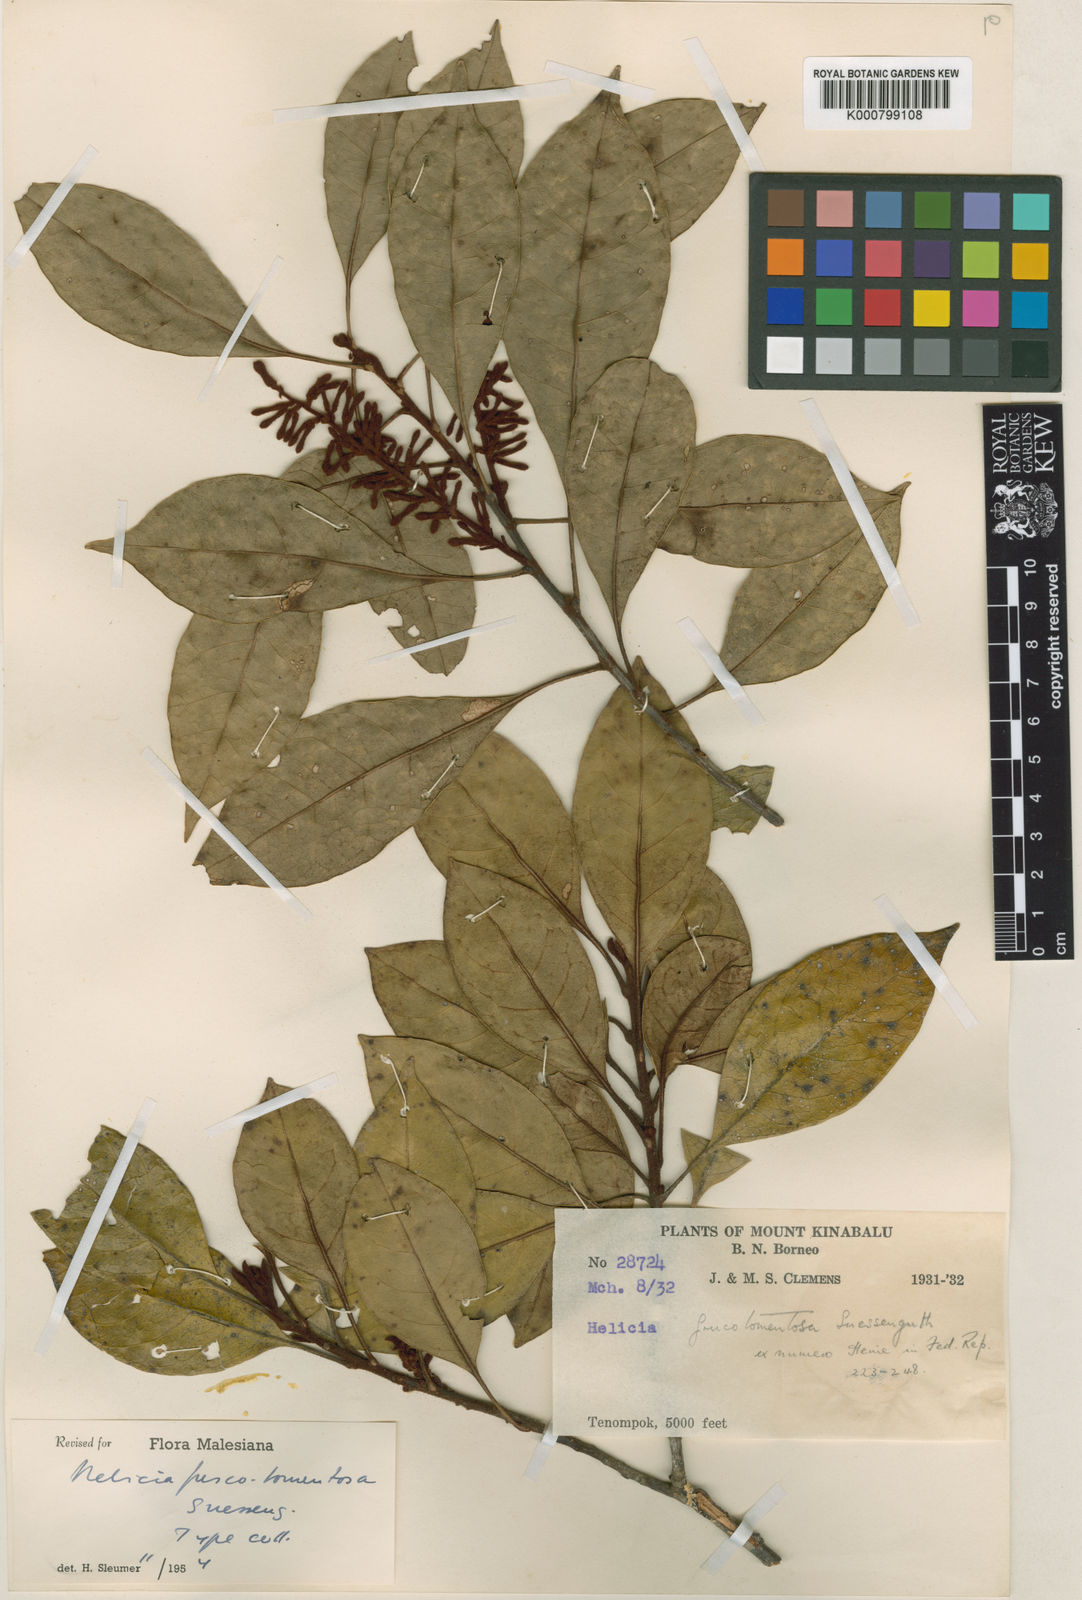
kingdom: Plantae
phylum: Tracheophyta
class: Magnoliopsida
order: Proteales
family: Proteaceae
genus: Helicia
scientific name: Helicia fuscotomentosa
